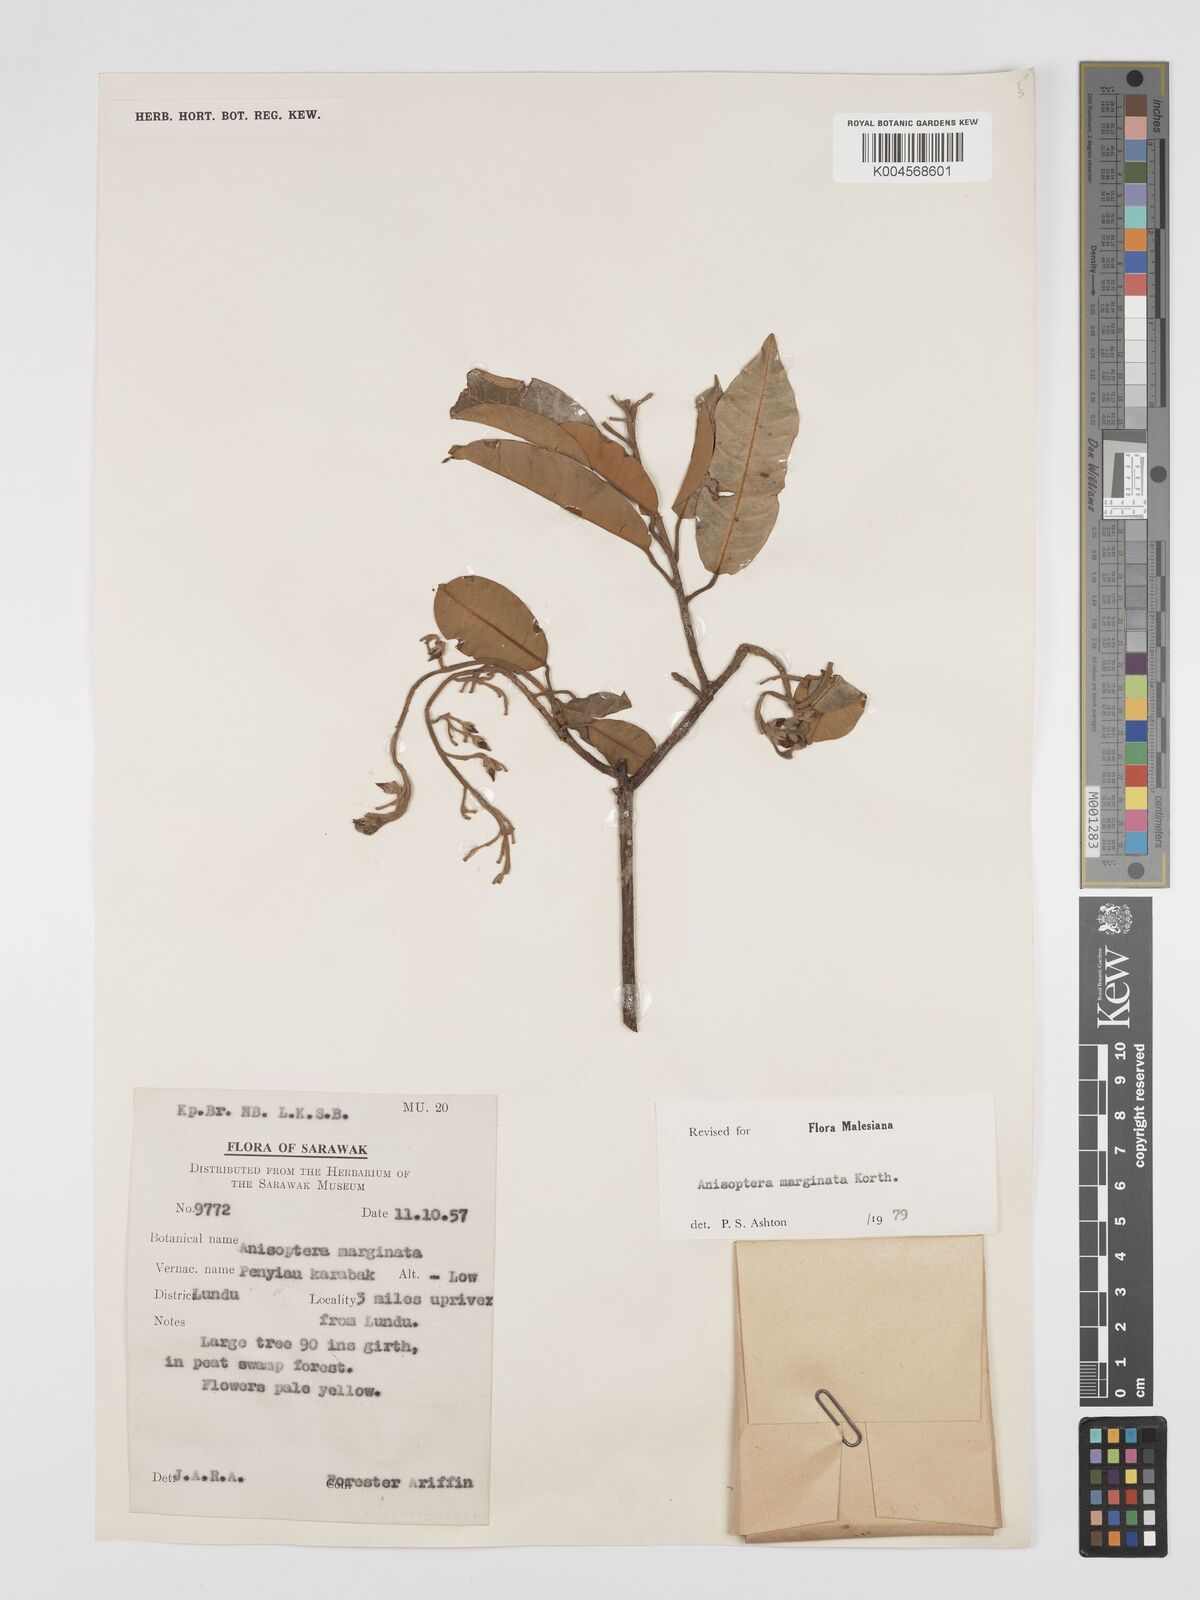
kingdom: Plantae
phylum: Tracheophyta
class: Magnoliopsida
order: Malvales
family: Dipterocarpaceae
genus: Anisoptera
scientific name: Anisoptera marginata
